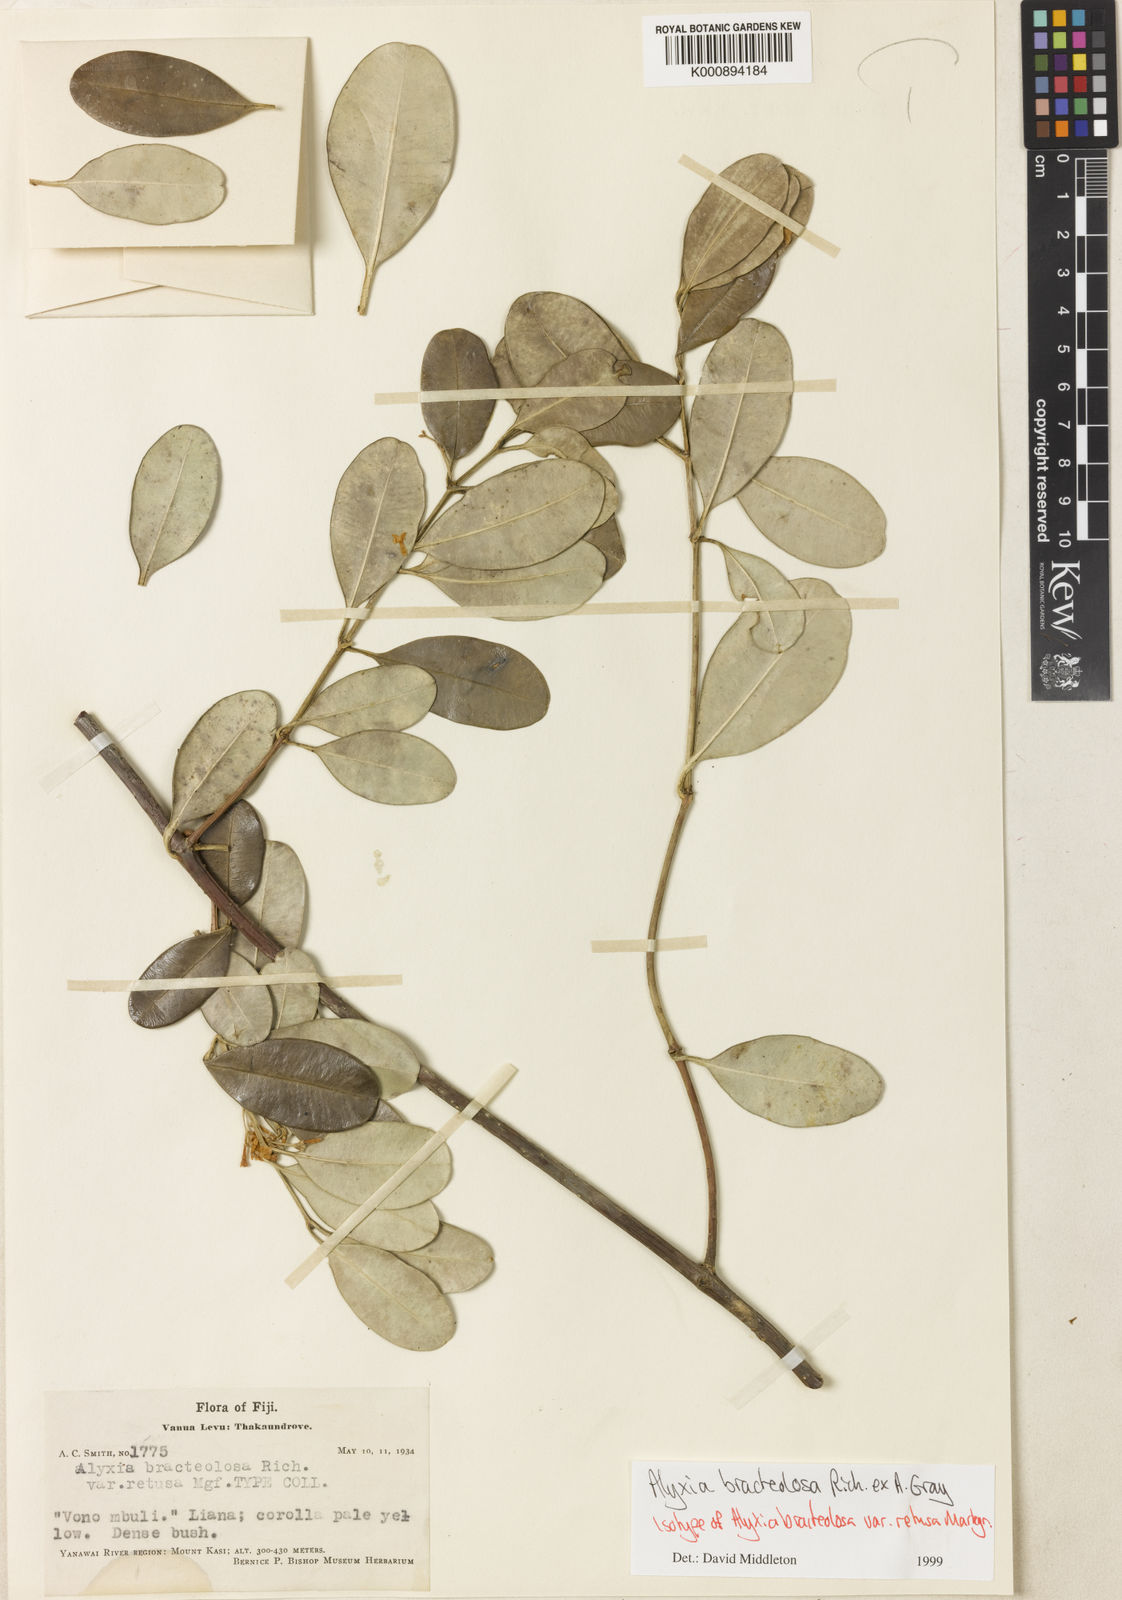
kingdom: Plantae
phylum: Tracheophyta
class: Magnoliopsida
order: Gentianales
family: Apocynaceae
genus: Alyxia
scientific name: Alyxia bracteolosa
